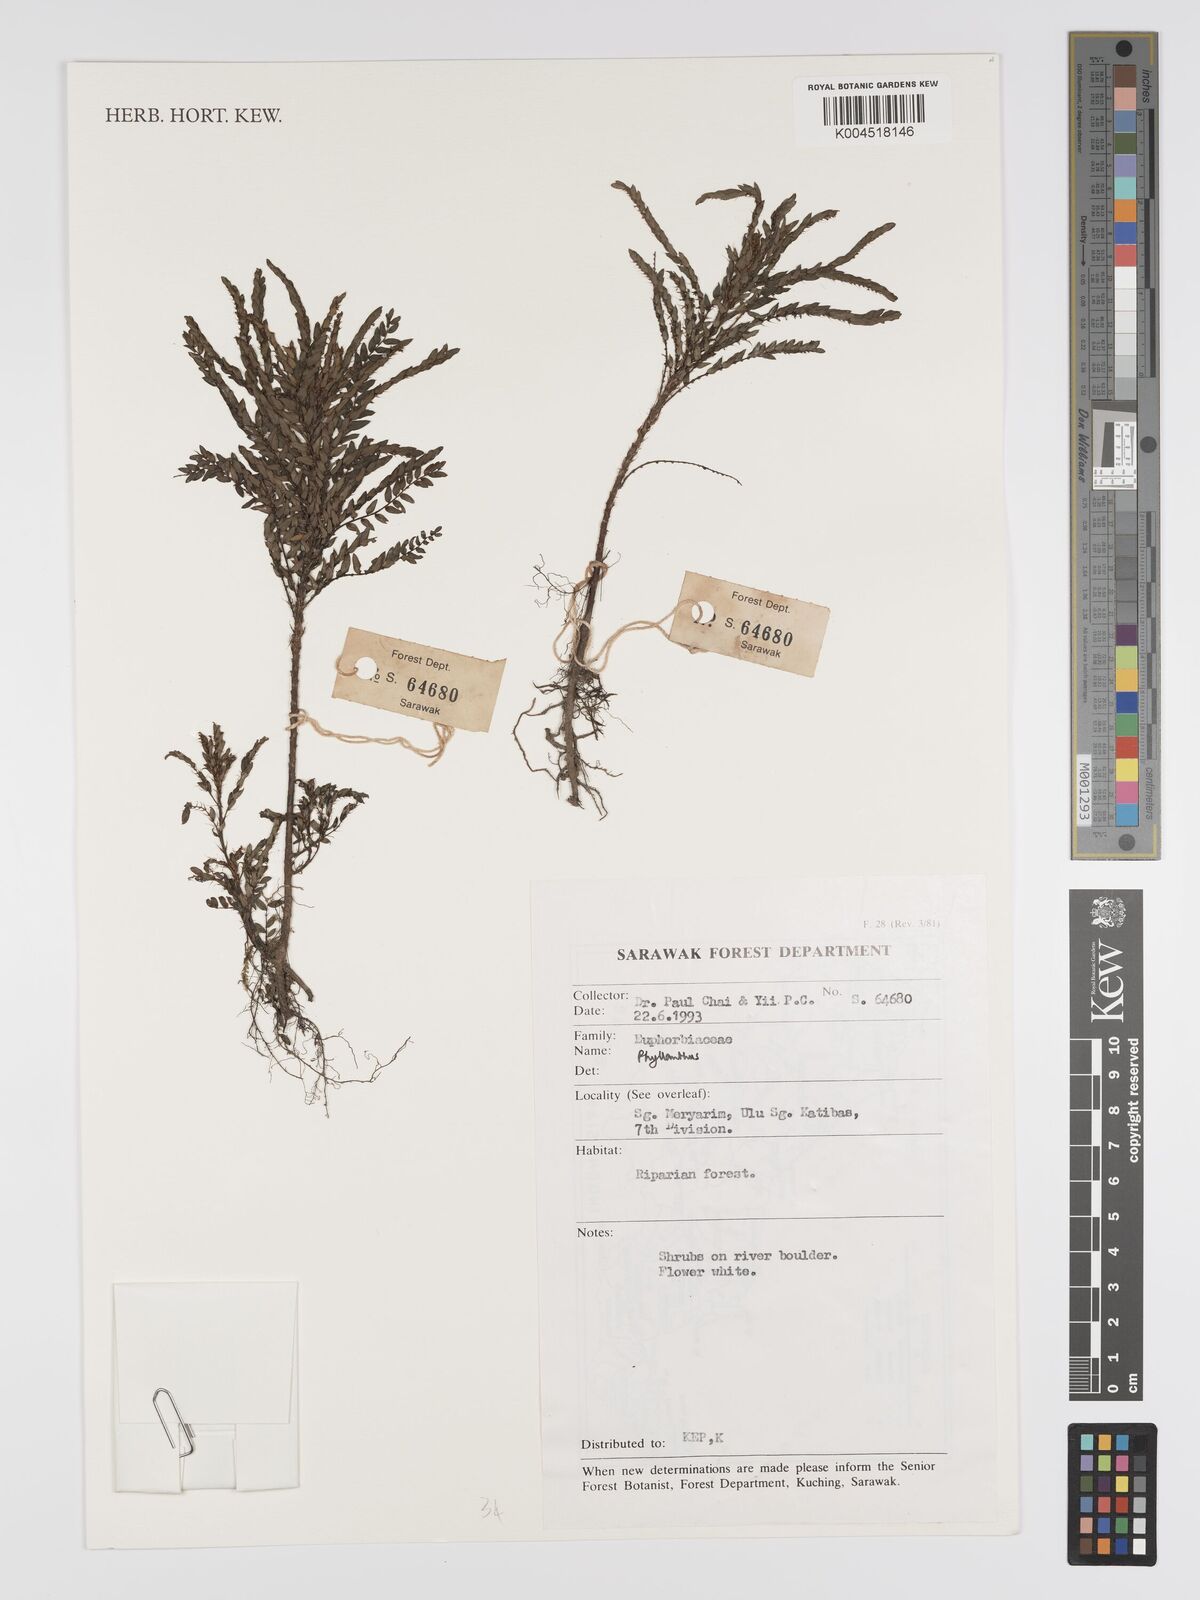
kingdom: Plantae
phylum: Tracheophyta
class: Magnoliopsida
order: Malpighiales
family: Phyllanthaceae
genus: Phyllanthus
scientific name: Phyllanthus
